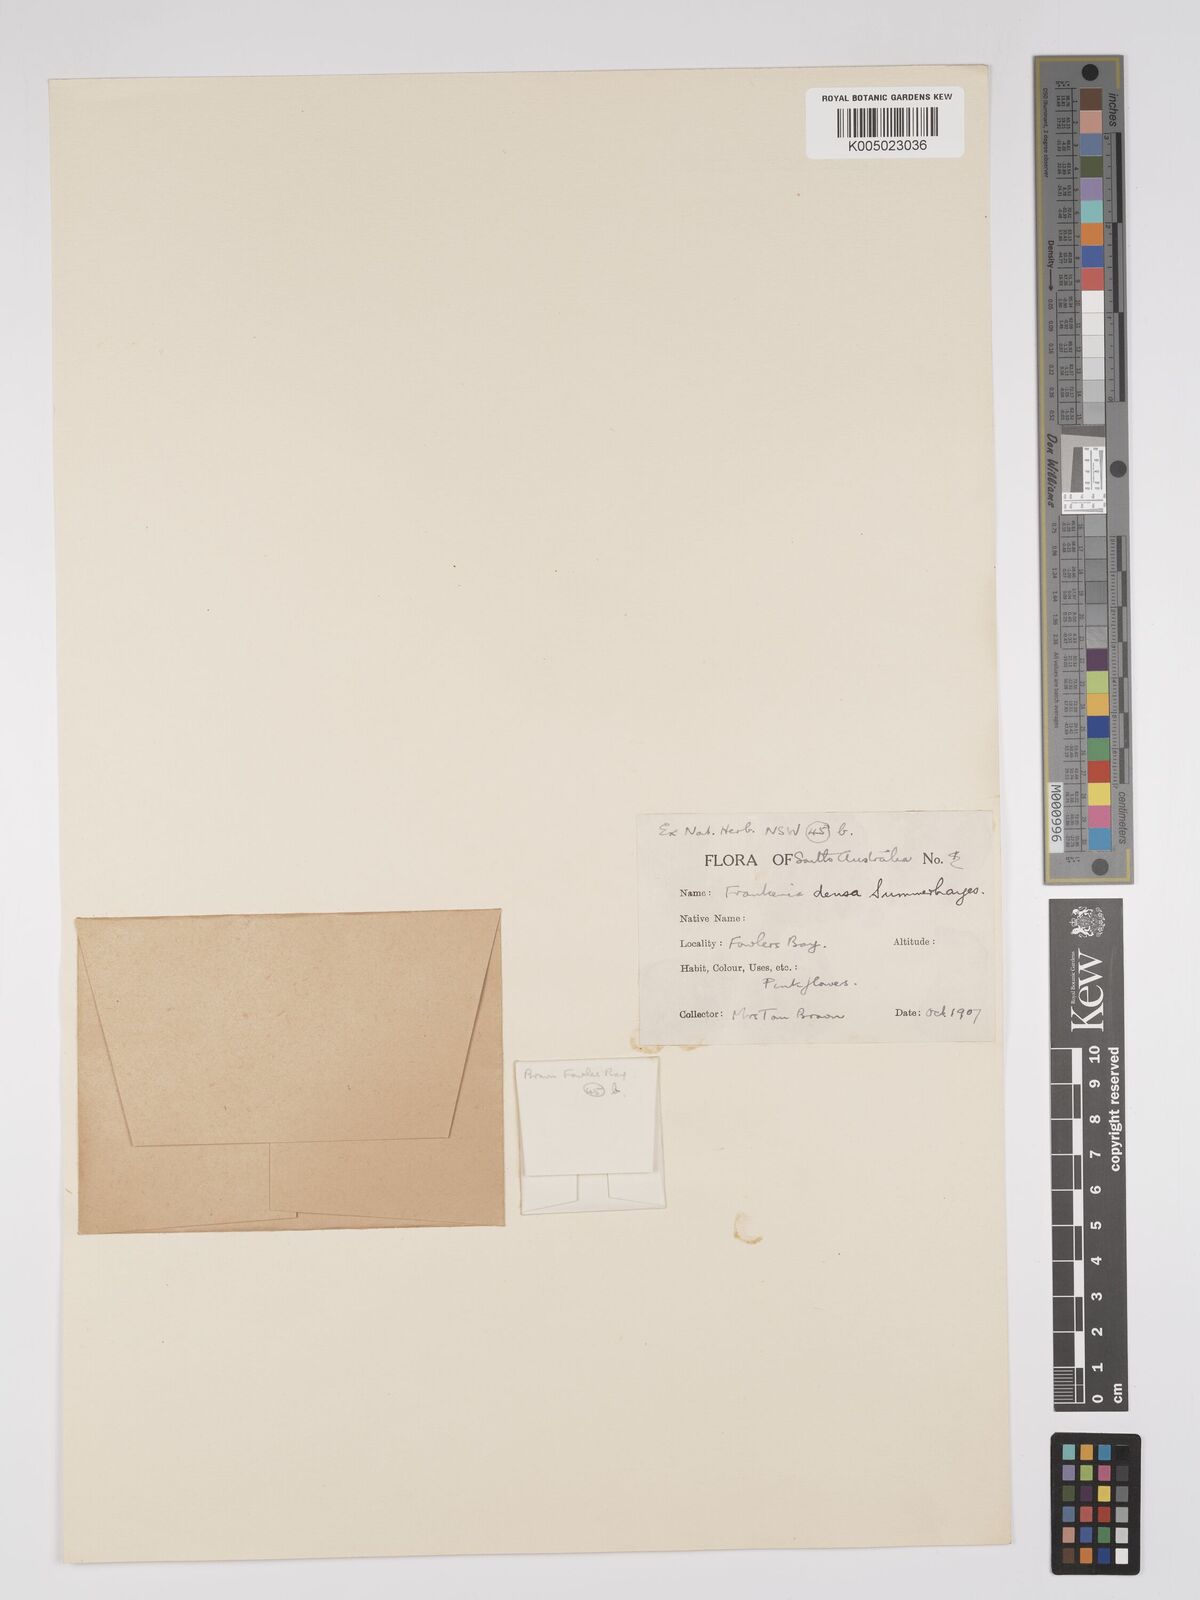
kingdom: Plantae
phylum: Tracheophyta
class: Magnoliopsida
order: Caryophyllales
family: Frankeniaceae
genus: Frankenia
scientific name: Frankenia
